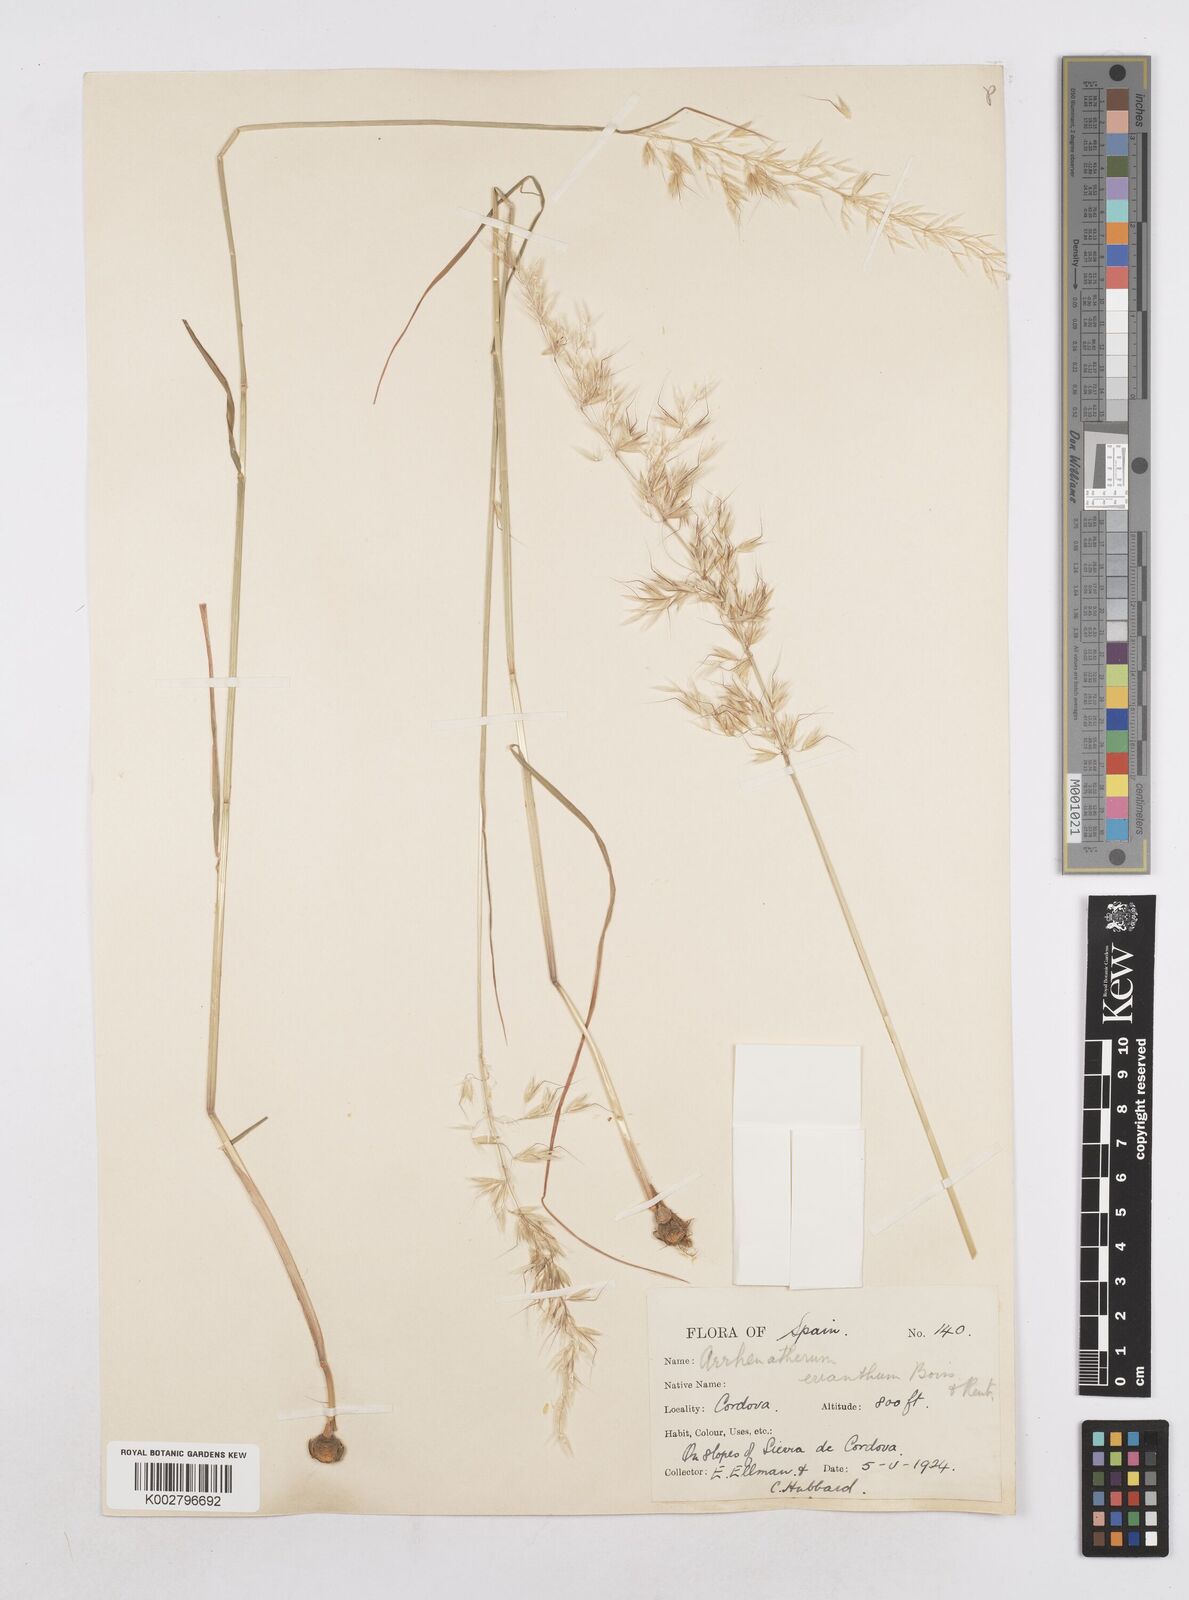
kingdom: Plantae
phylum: Tracheophyta
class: Liliopsida
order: Poales
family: Poaceae
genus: Arrhenatherum
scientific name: Arrhenatherum album
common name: Tall oat grass
